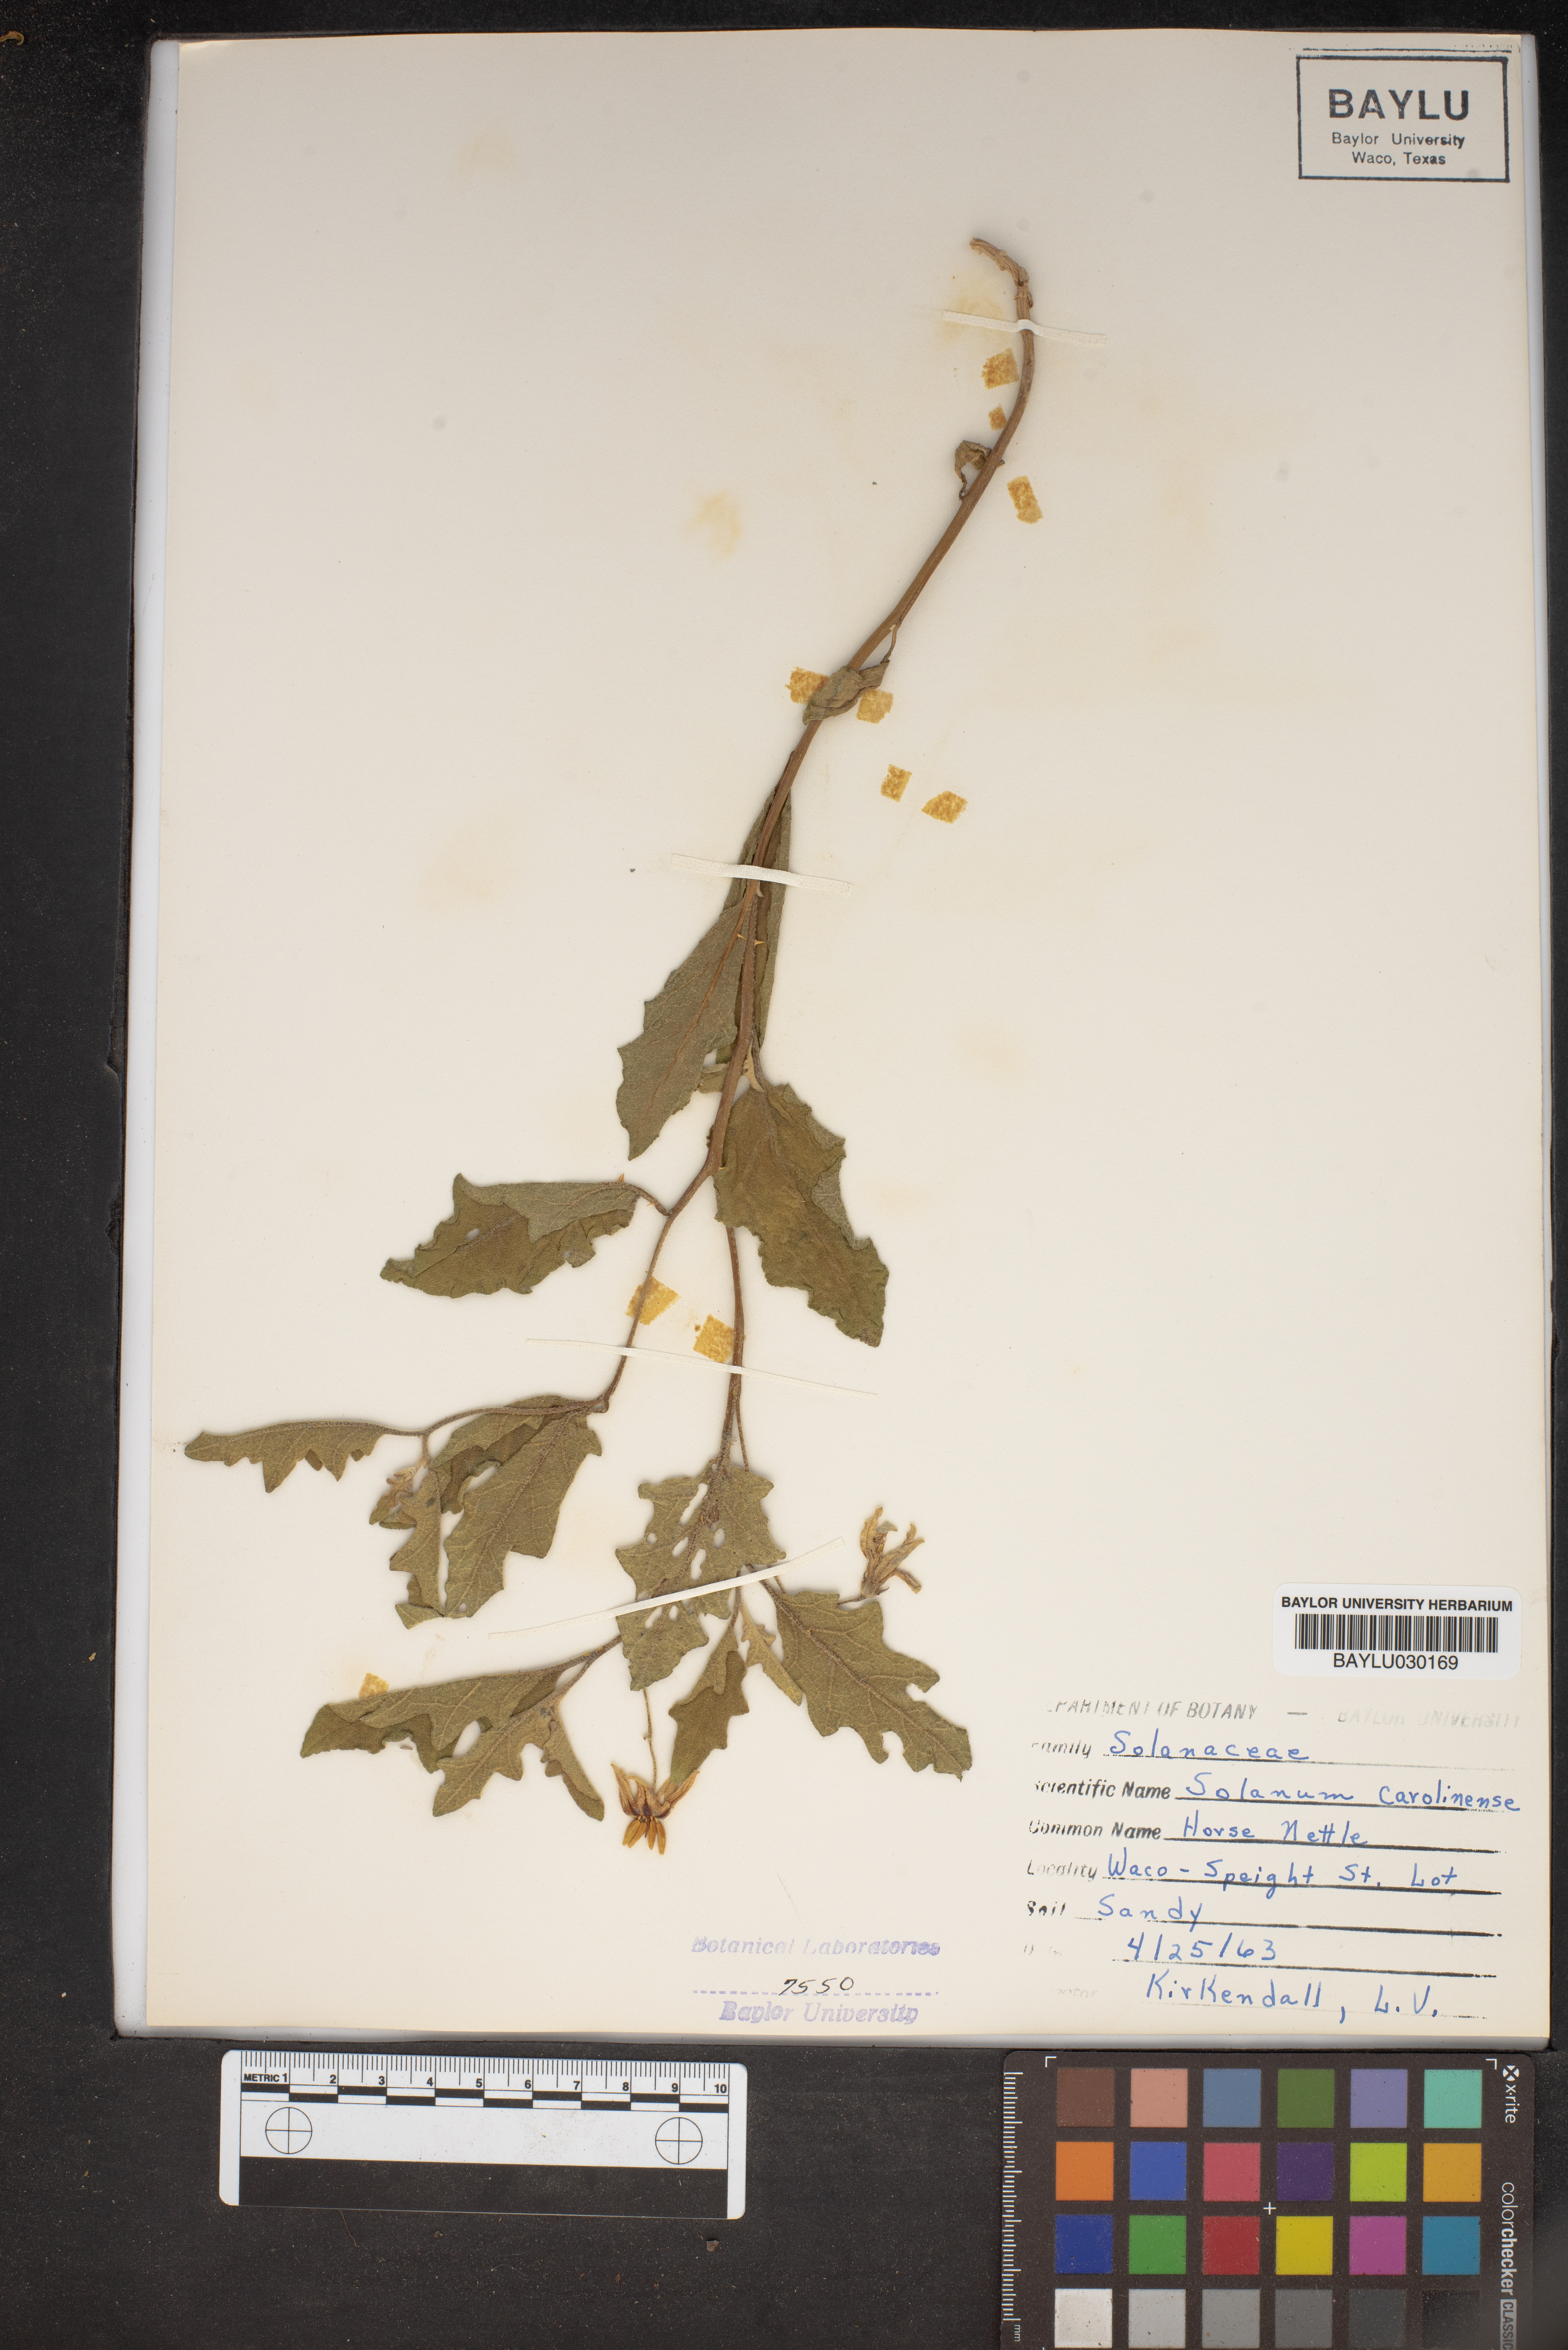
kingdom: Plantae
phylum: Tracheophyta
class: Magnoliopsida
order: Solanales
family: Solanaceae
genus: Solanum
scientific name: Solanum carolinense
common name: Horse-nettle
